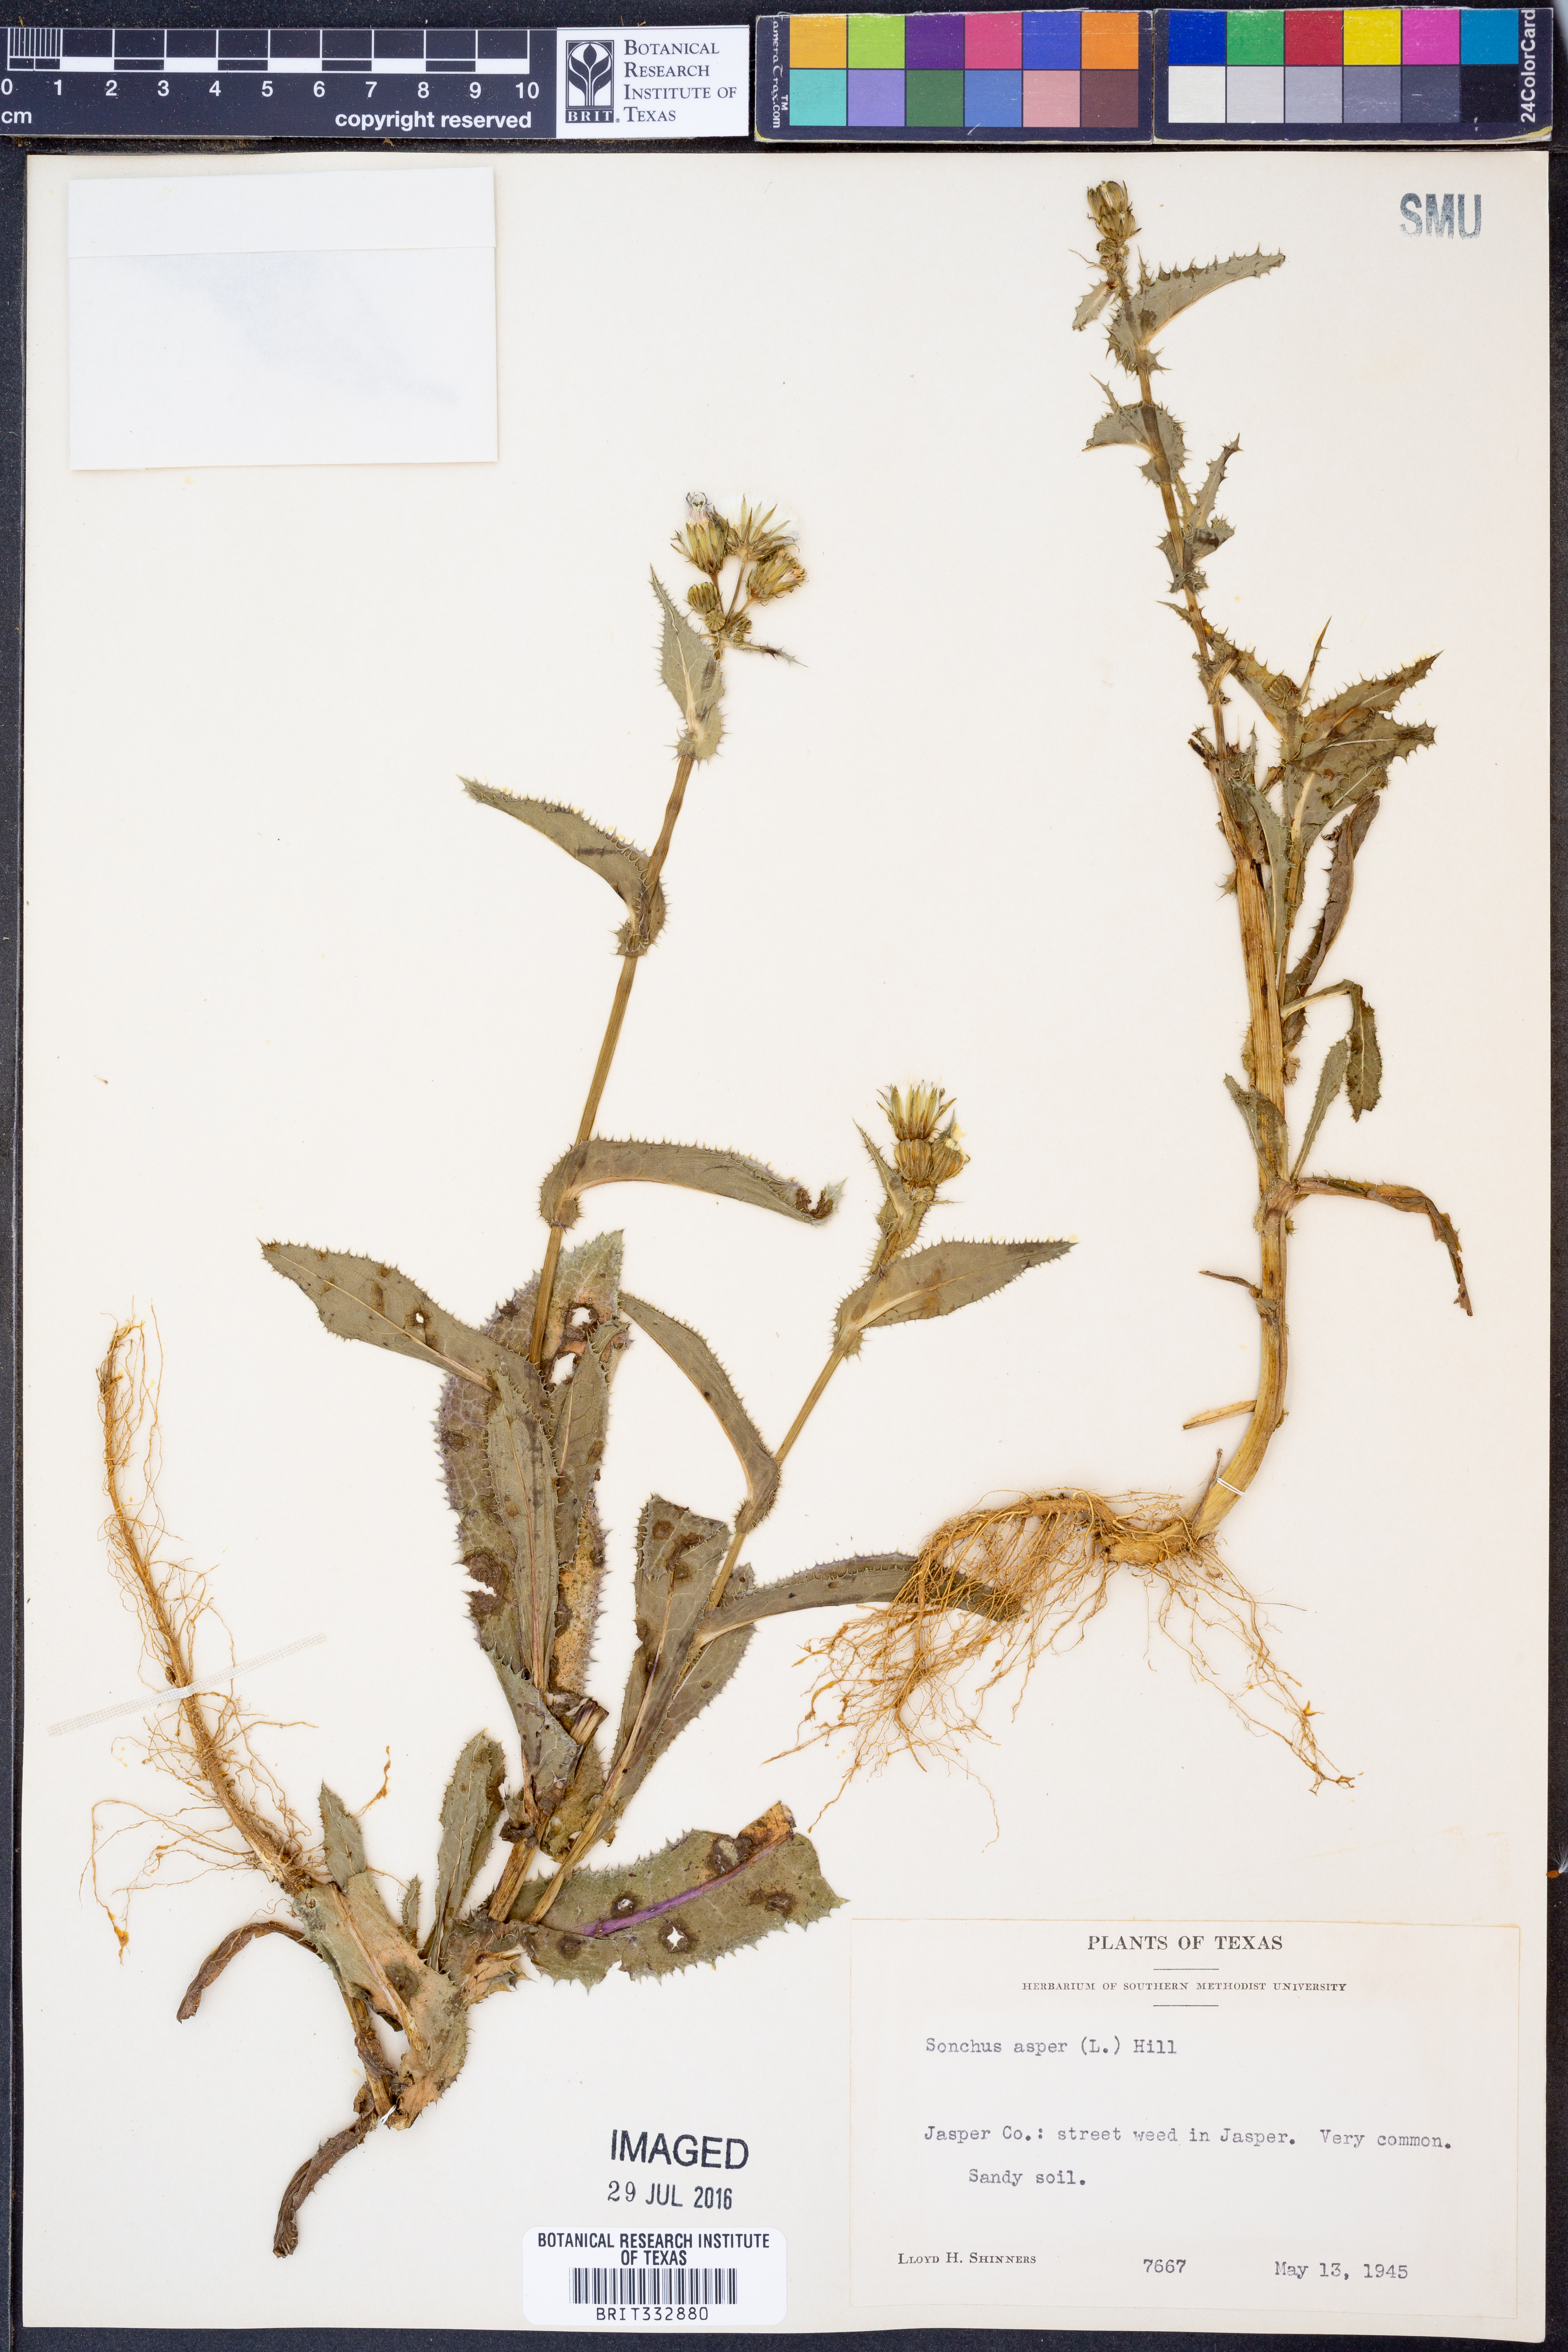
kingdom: Plantae
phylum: Tracheophyta
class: Magnoliopsida
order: Asterales
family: Asteraceae
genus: Sonchus
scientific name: Sonchus asper
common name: Prickly sow-thistle
